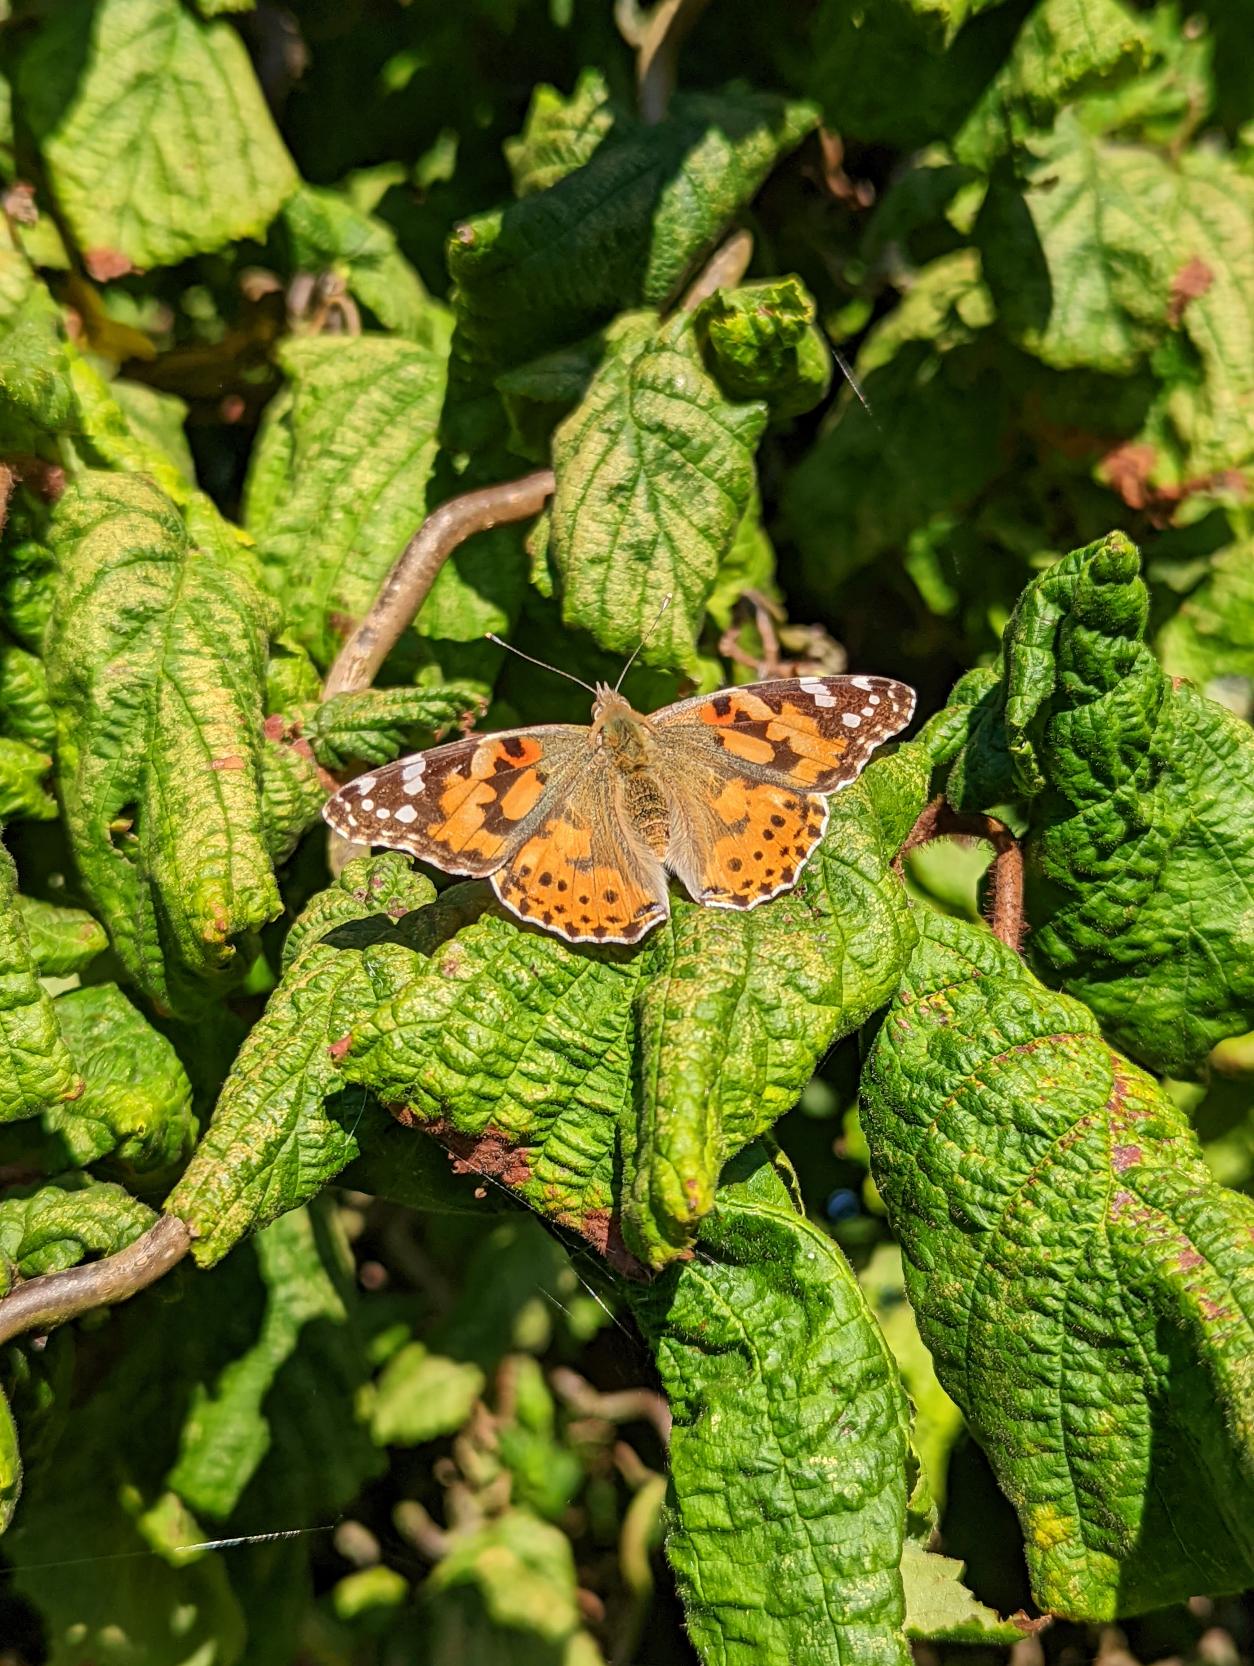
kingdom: Animalia
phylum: Arthropoda
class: Insecta
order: Lepidoptera
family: Nymphalidae
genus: Vanessa
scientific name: Vanessa cardui
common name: Tidselsommerfugl
